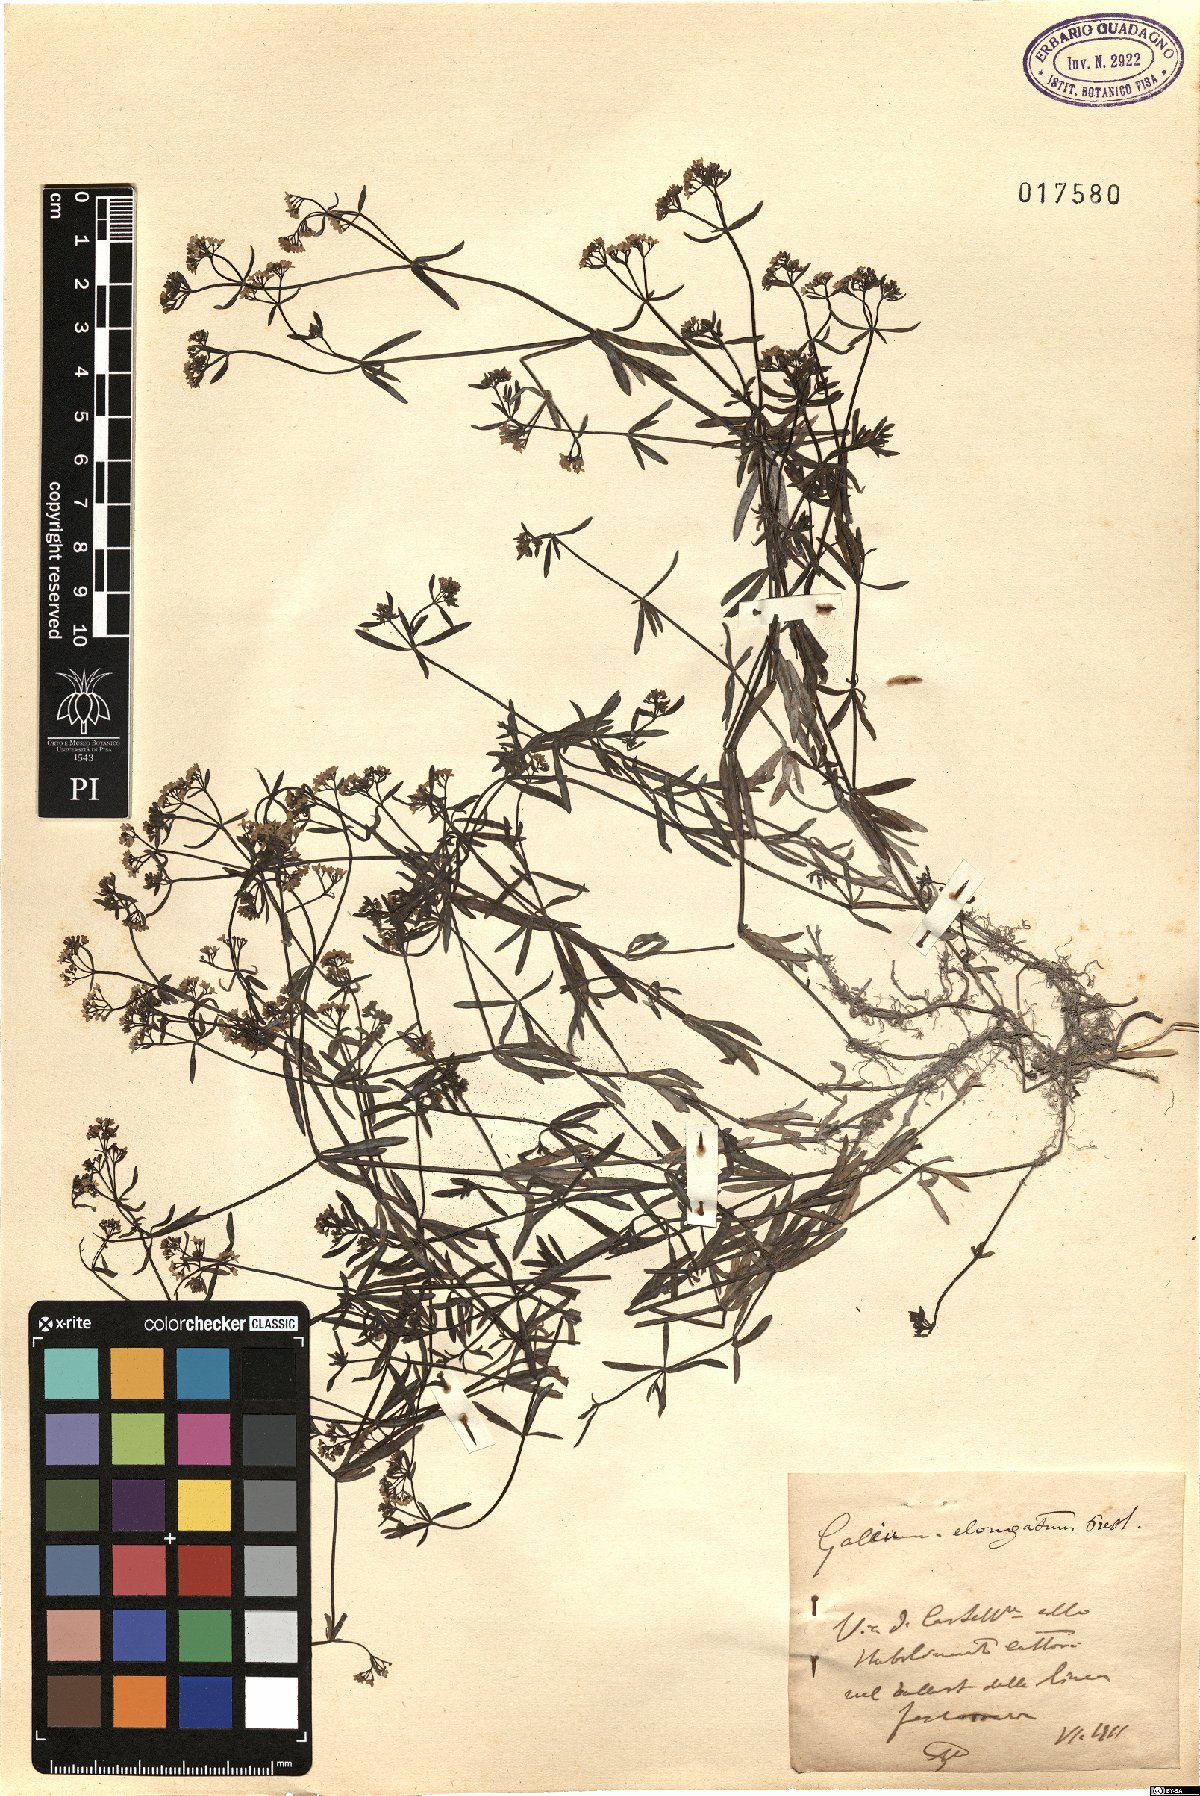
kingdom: Plantae
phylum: Tracheophyta
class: Magnoliopsida
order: Gentianales
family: Rubiaceae
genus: Galium
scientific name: Galium elongatum
